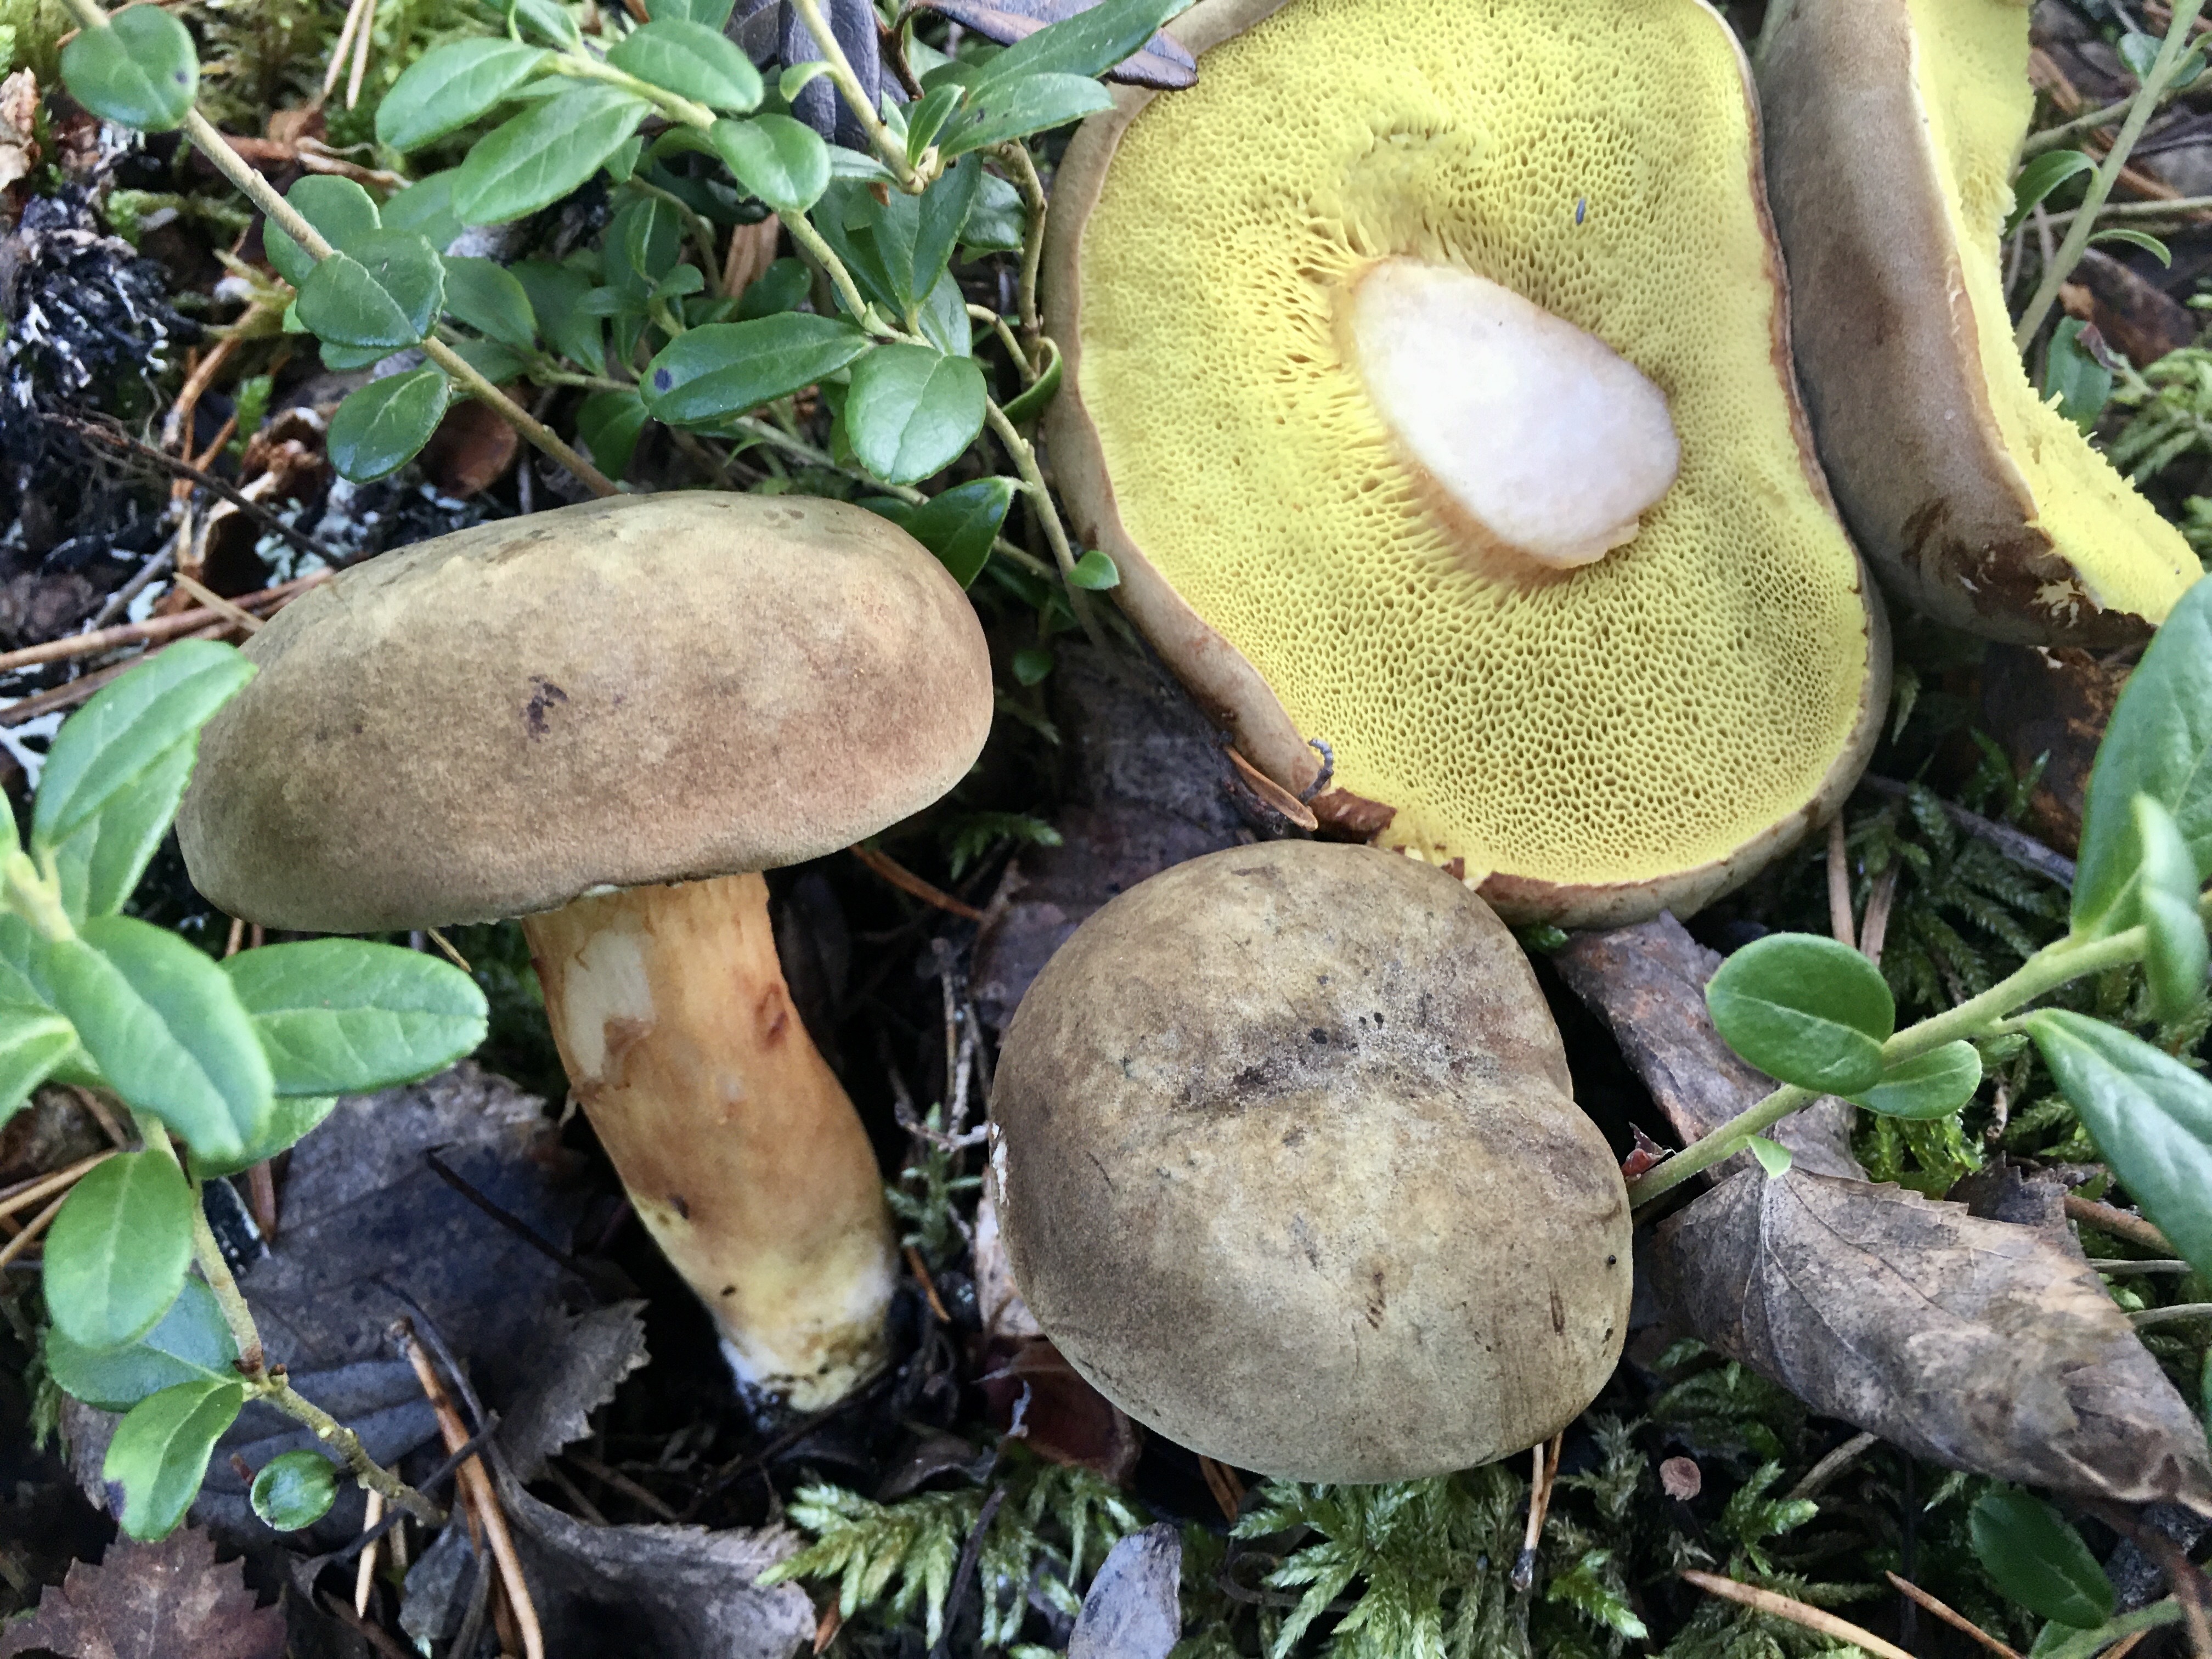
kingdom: Fungi
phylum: Basidiomycota
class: Agaricomycetes
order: Boletales
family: Boletaceae
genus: Xerocomus
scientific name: Xerocomus subtomentosus
